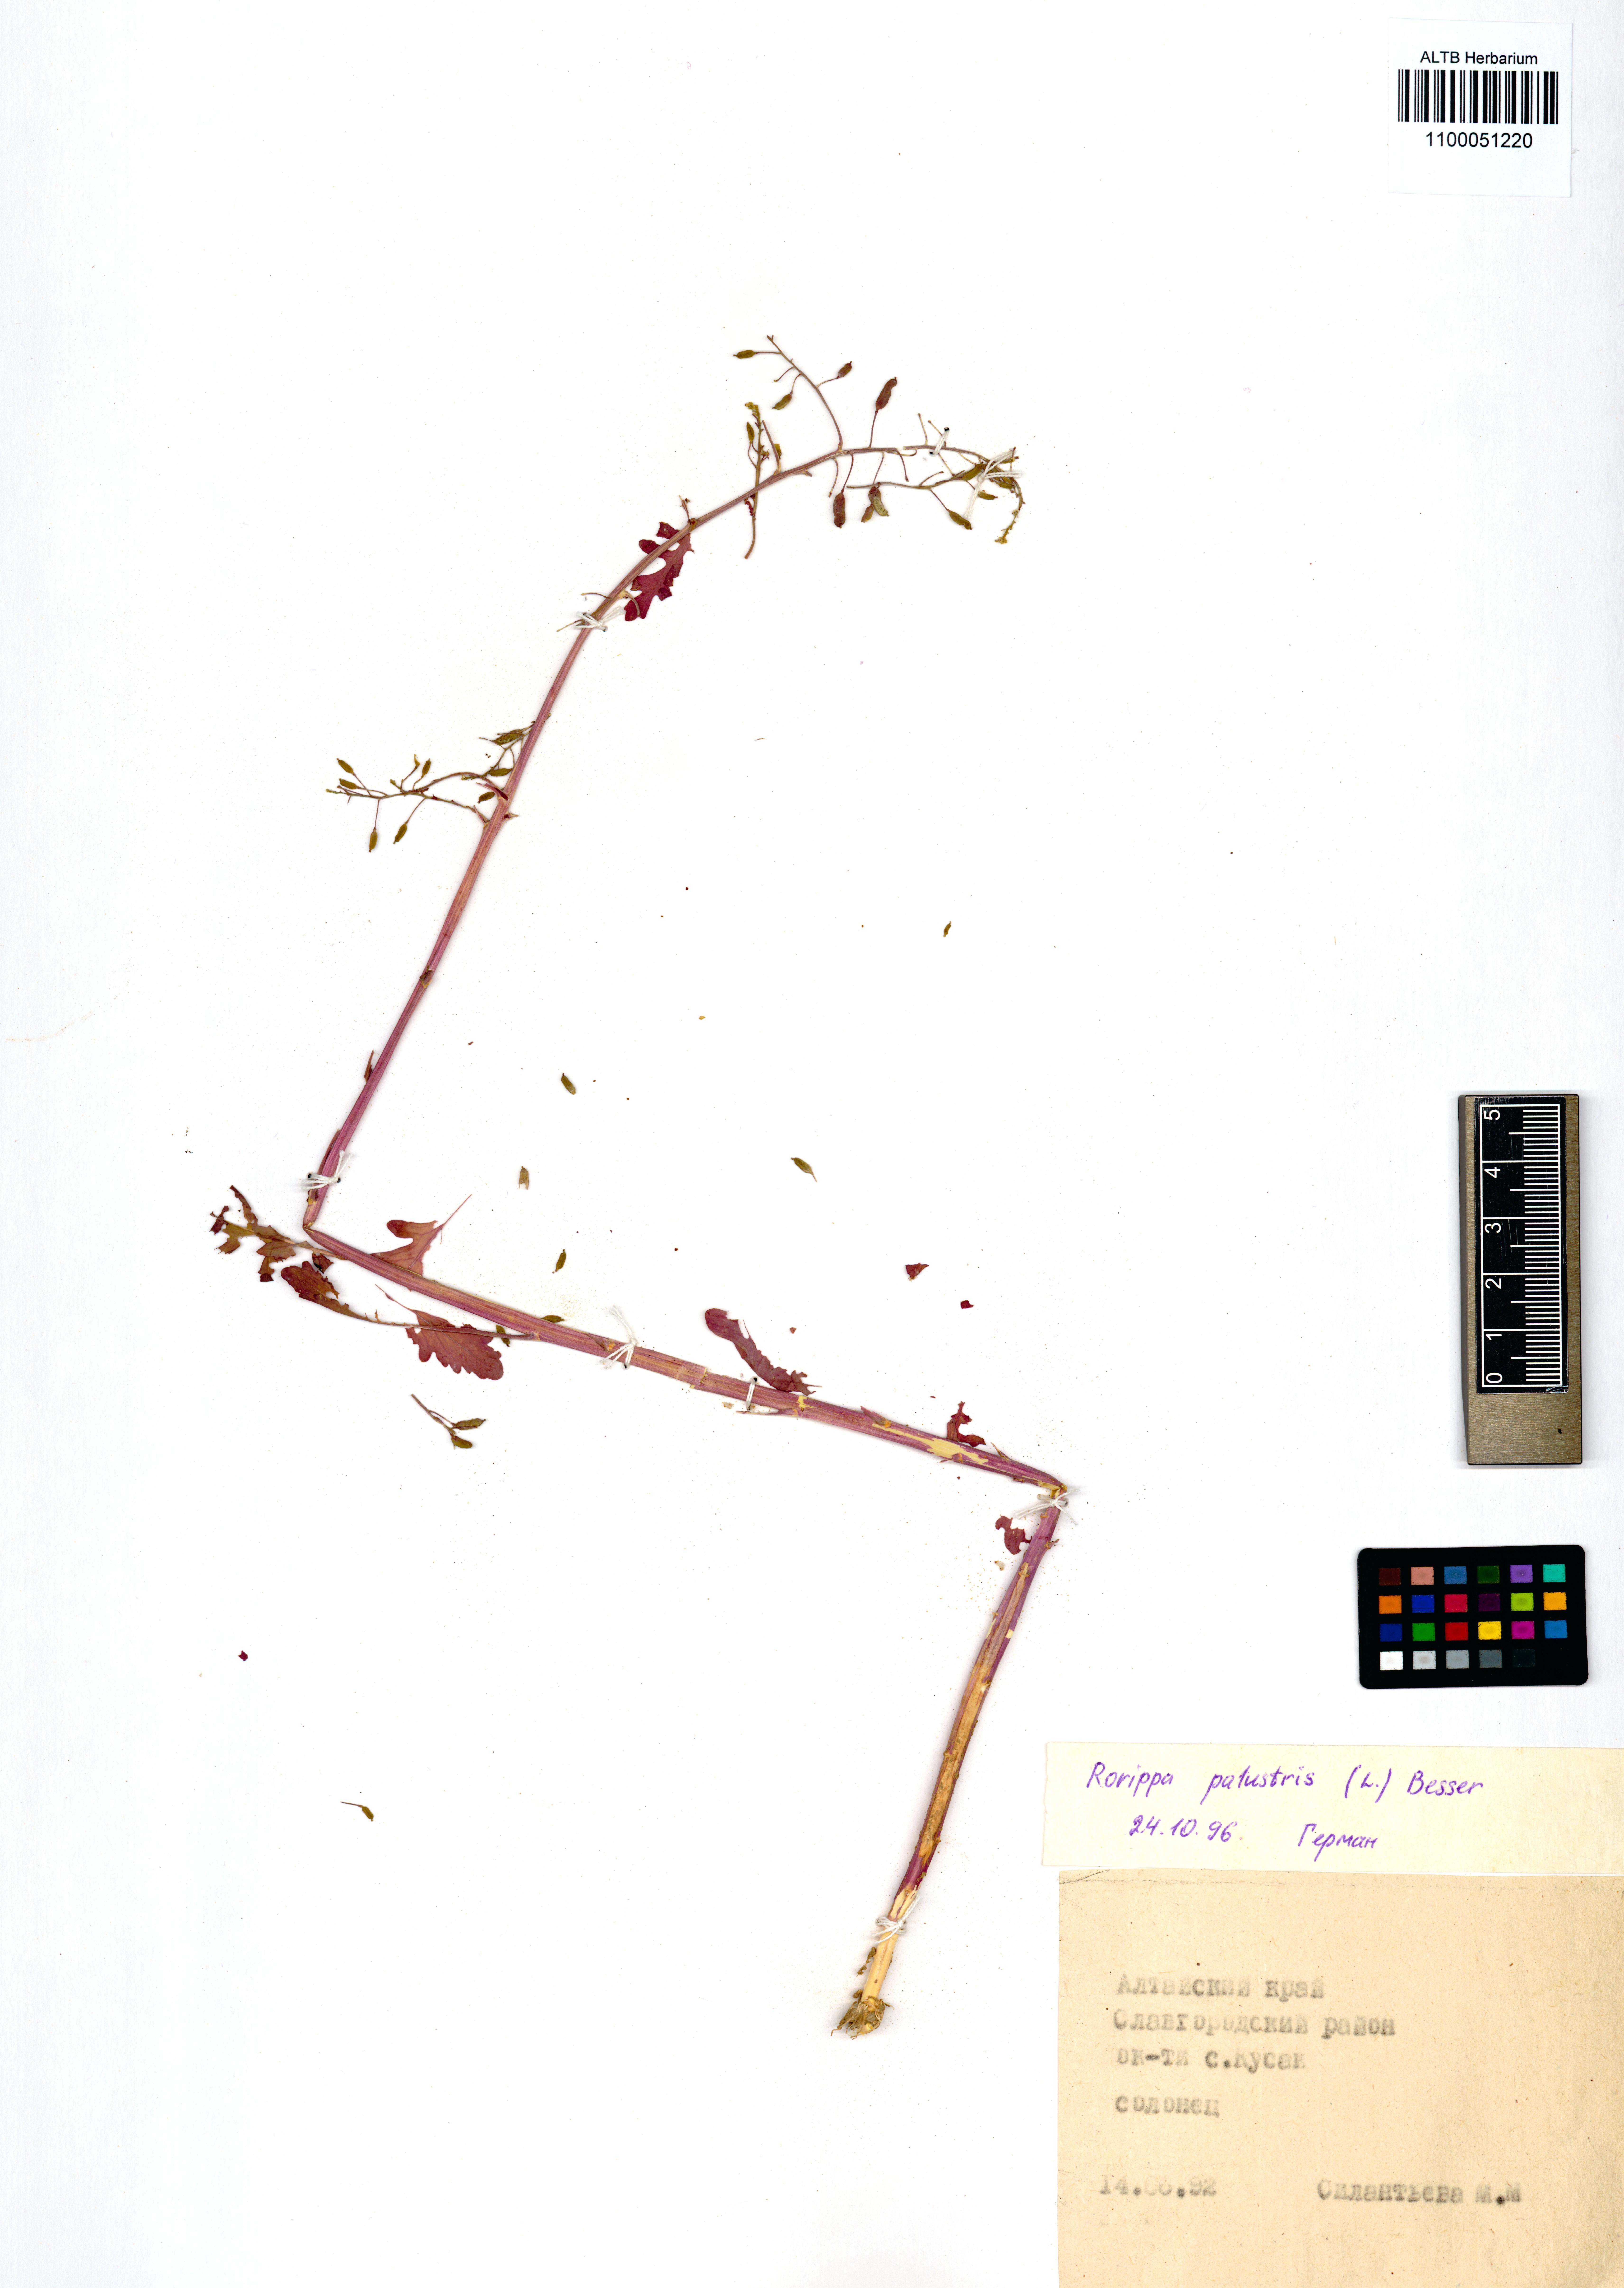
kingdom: Plantae
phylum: Tracheophyta
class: Magnoliopsida
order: Brassicales
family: Brassicaceae
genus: Rorippa
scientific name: Rorippa palustris
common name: Marsh yellow-cress
